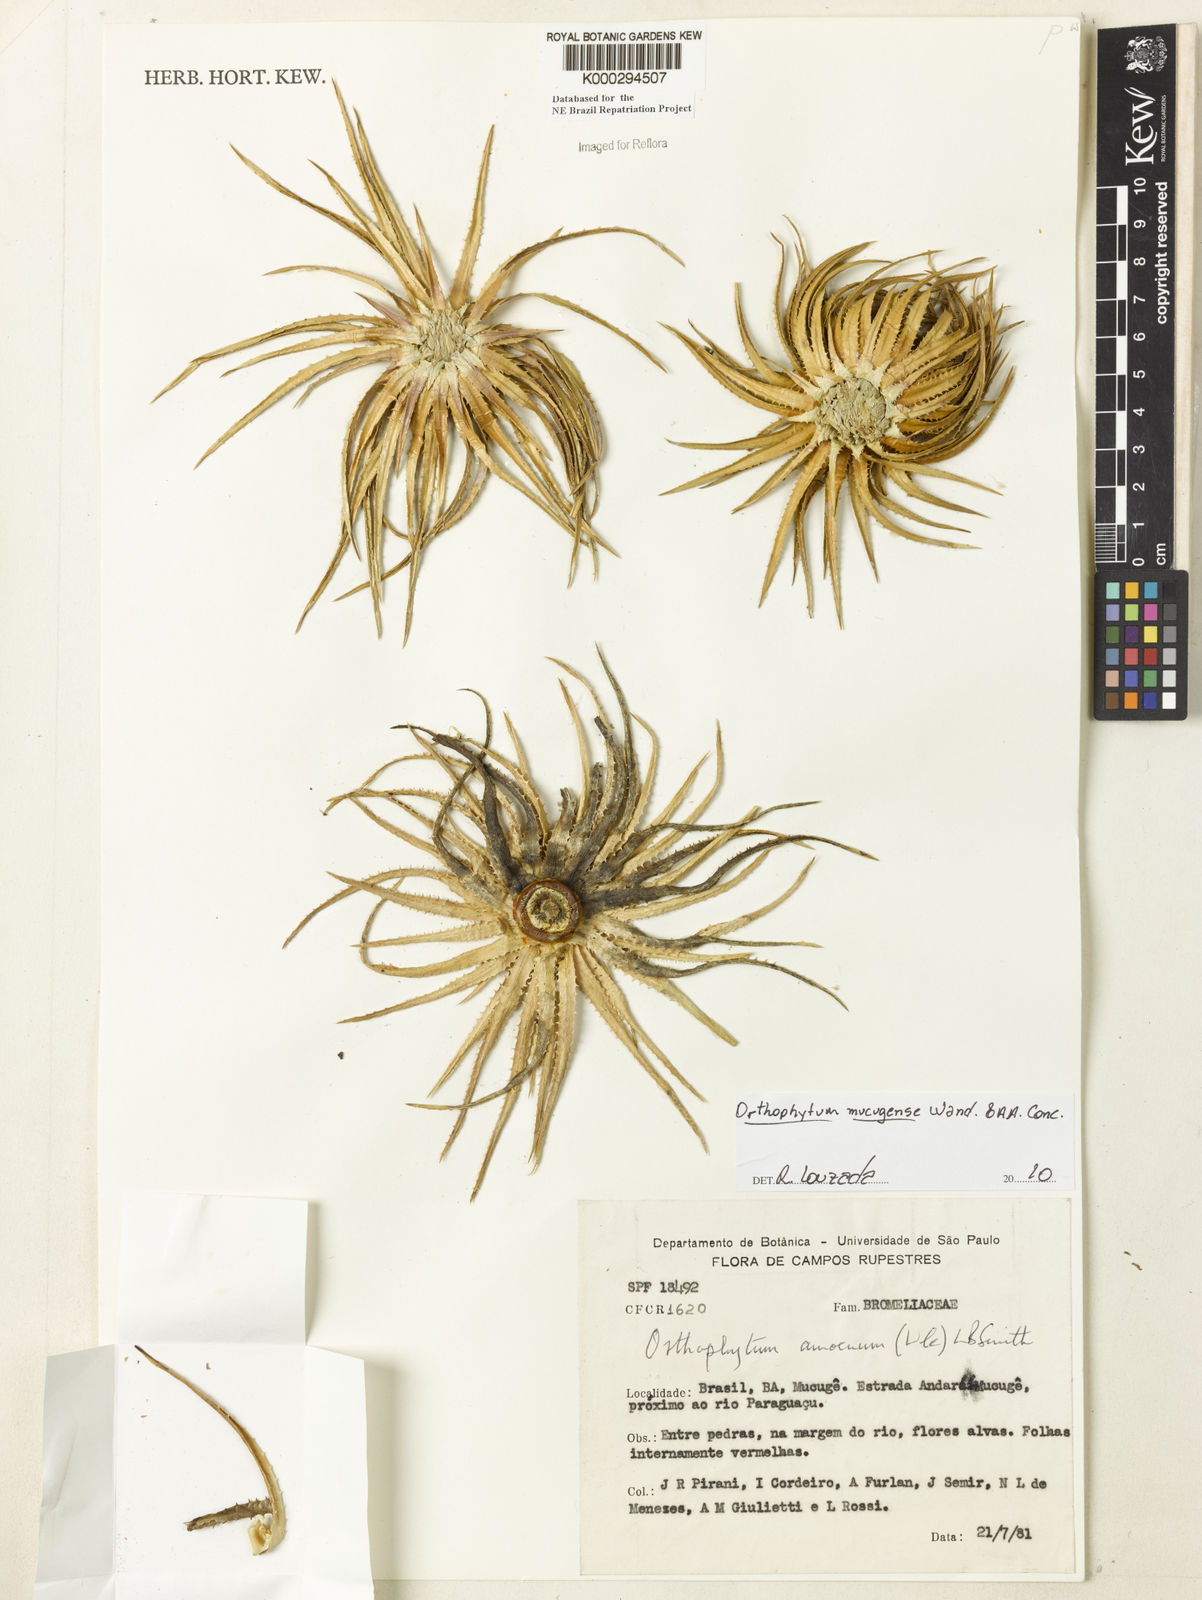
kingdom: Plantae
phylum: Tracheophyta
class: Liliopsida
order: Poales
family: Bromeliaceae
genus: Sincoraea
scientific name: Sincoraea amoena
